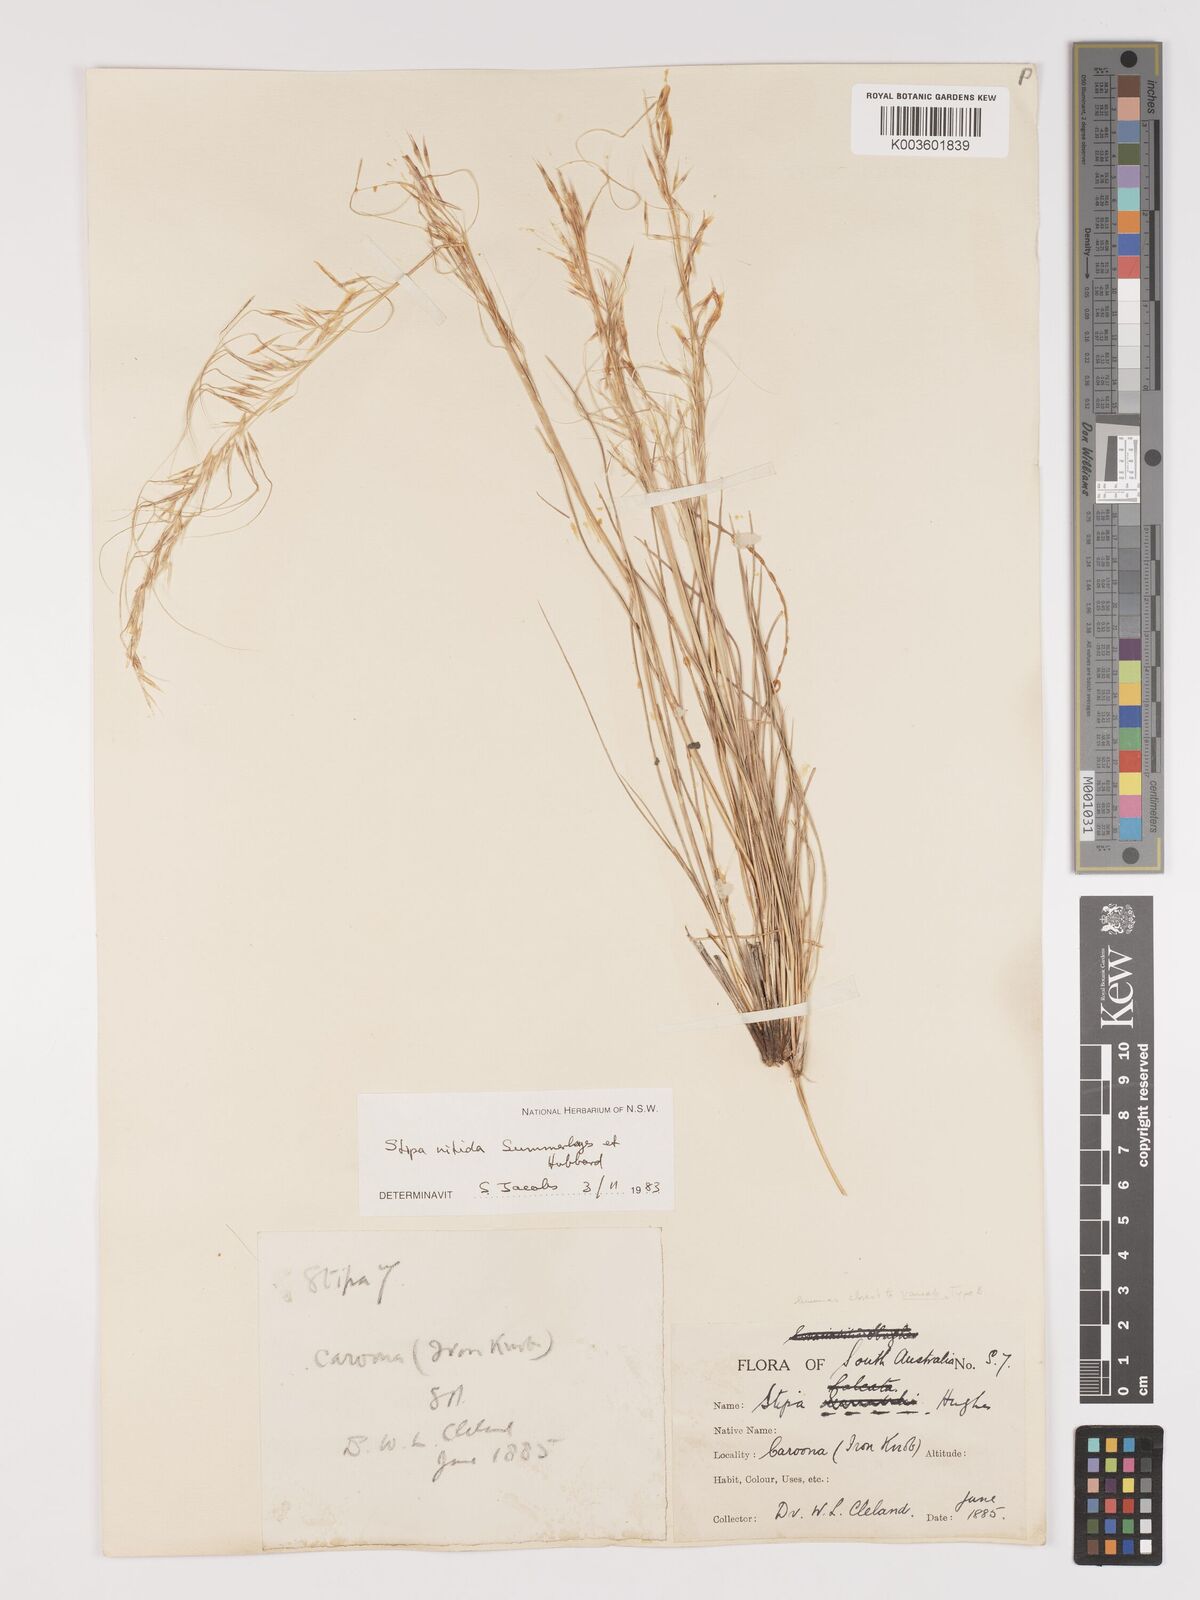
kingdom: Plantae
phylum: Tracheophyta
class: Liliopsida
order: Poales
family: Poaceae
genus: Austrostipa
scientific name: Austrostipa nitida
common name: Balcarra grass
